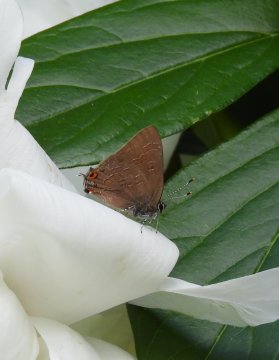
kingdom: Animalia
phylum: Arthropoda
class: Insecta
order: Lepidoptera
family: Lycaenidae
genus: Satyrium
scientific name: Satyrium liparops
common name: Striped Hairstreak
